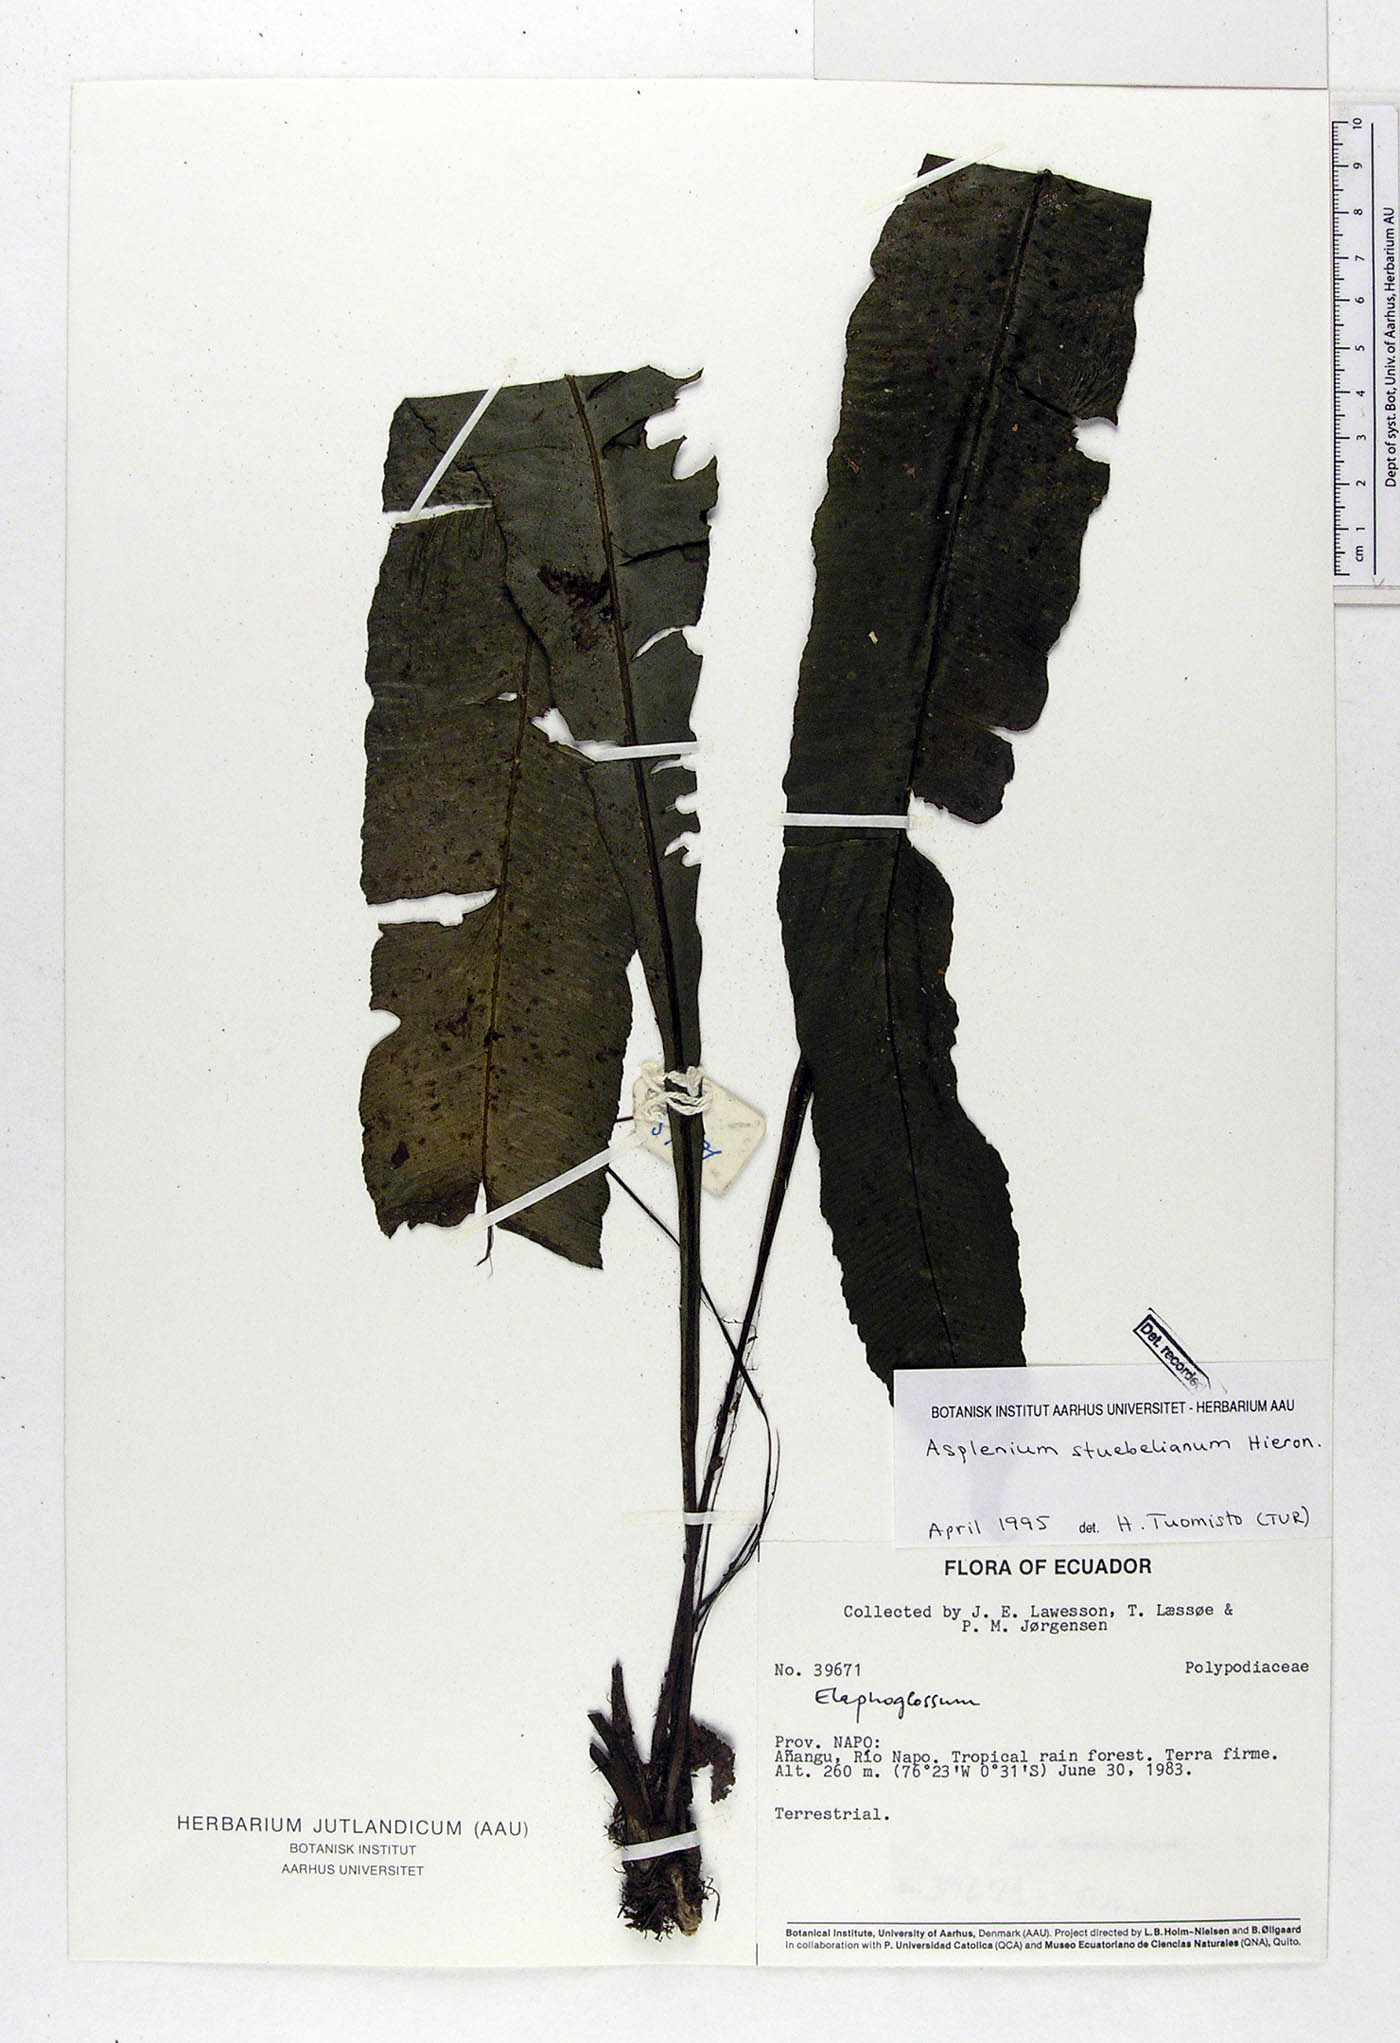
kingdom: Plantae
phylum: Tracheophyta
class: Polypodiopsida
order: Polypodiales
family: Aspleniaceae
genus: Asplenium
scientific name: Asplenium stuebelianum
